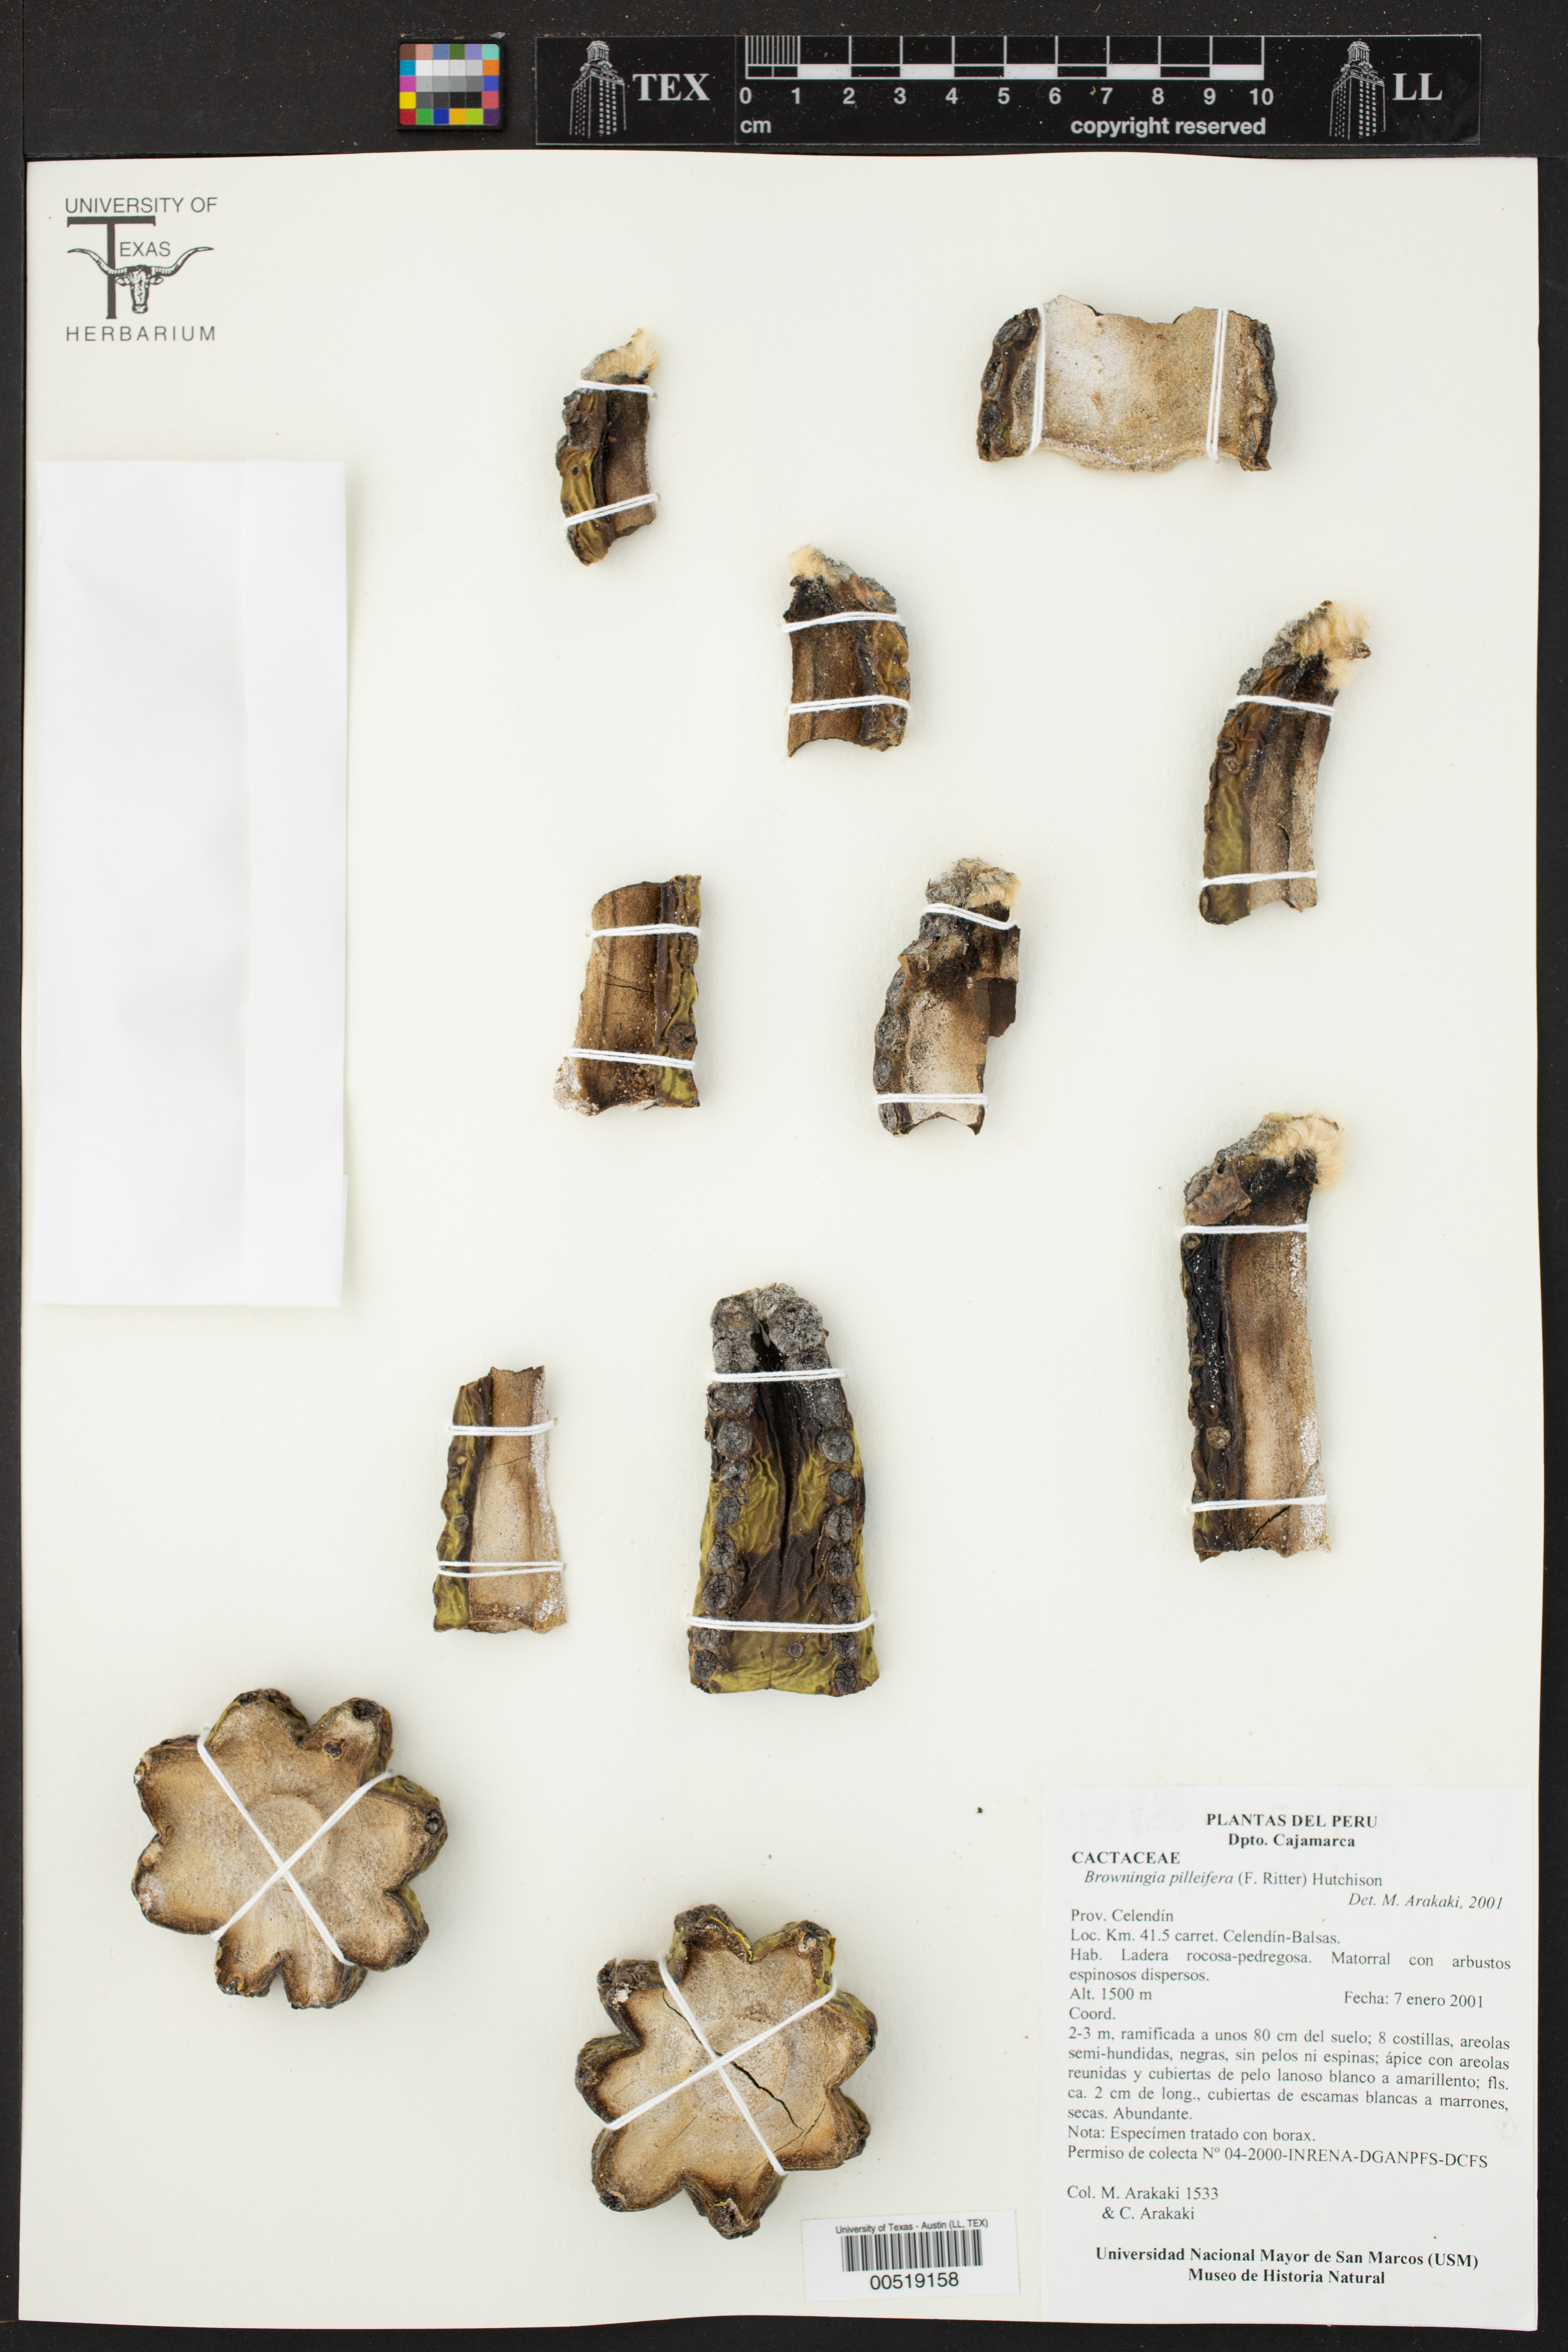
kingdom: Plantae
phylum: Tracheophyta
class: Magnoliopsida
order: Caryophyllales
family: Cactaceae
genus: Browningia
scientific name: Browningia pilleifera
